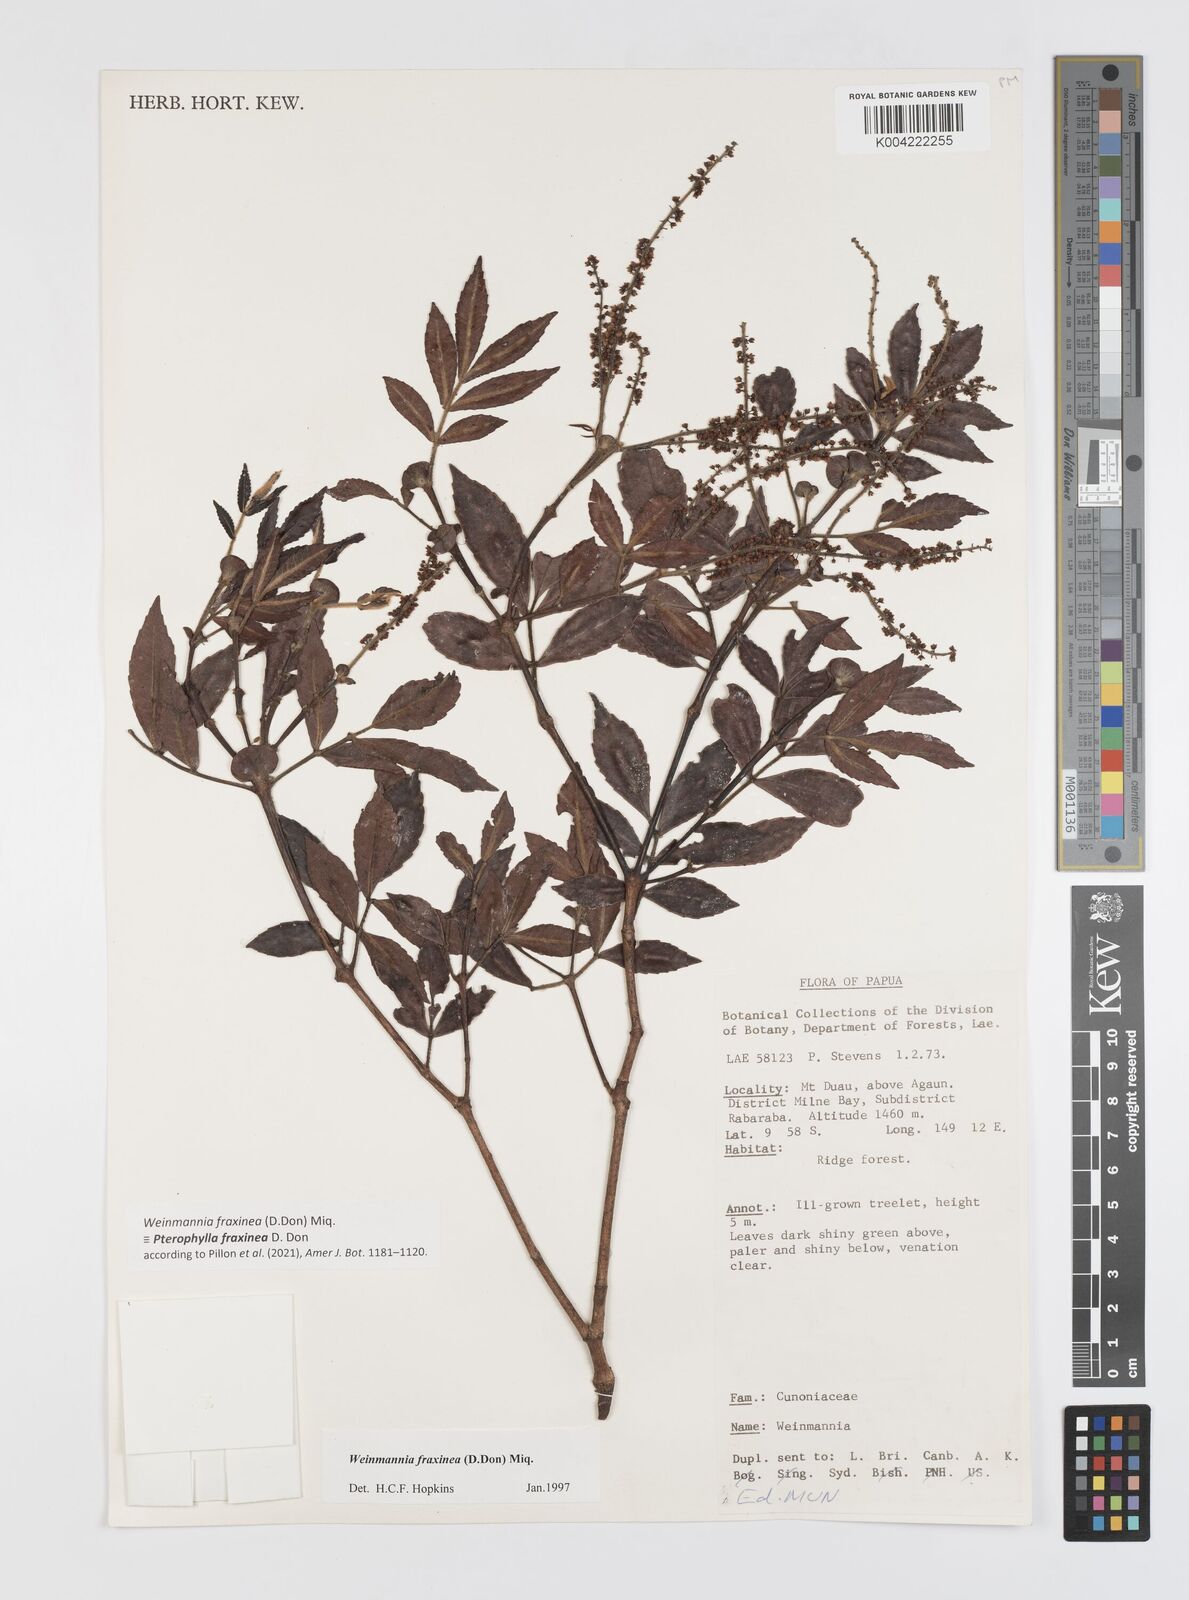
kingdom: Plantae
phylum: Tracheophyta
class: Magnoliopsida
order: Oxalidales
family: Cunoniaceae
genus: Pterophylla
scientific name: Pterophylla fraxinea
